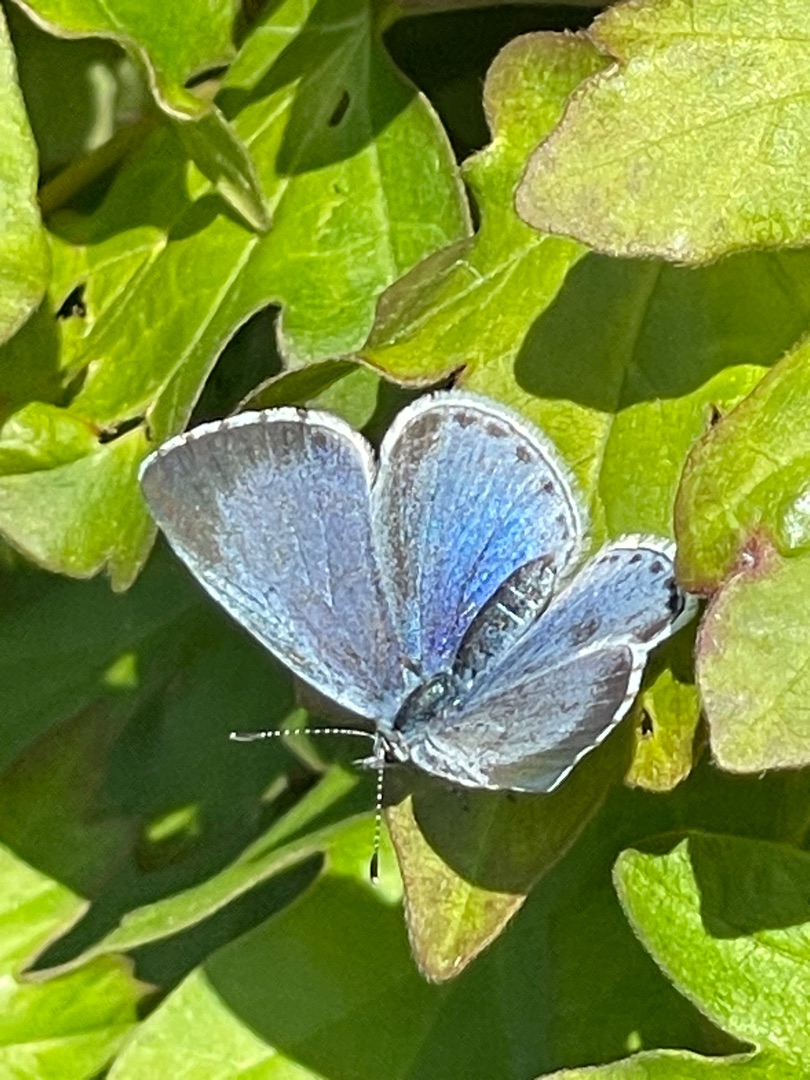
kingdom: Animalia
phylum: Arthropoda
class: Insecta
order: Lepidoptera
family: Lycaenidae
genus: Celastrina
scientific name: Celastrina argiolus
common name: Skovblåfugl
